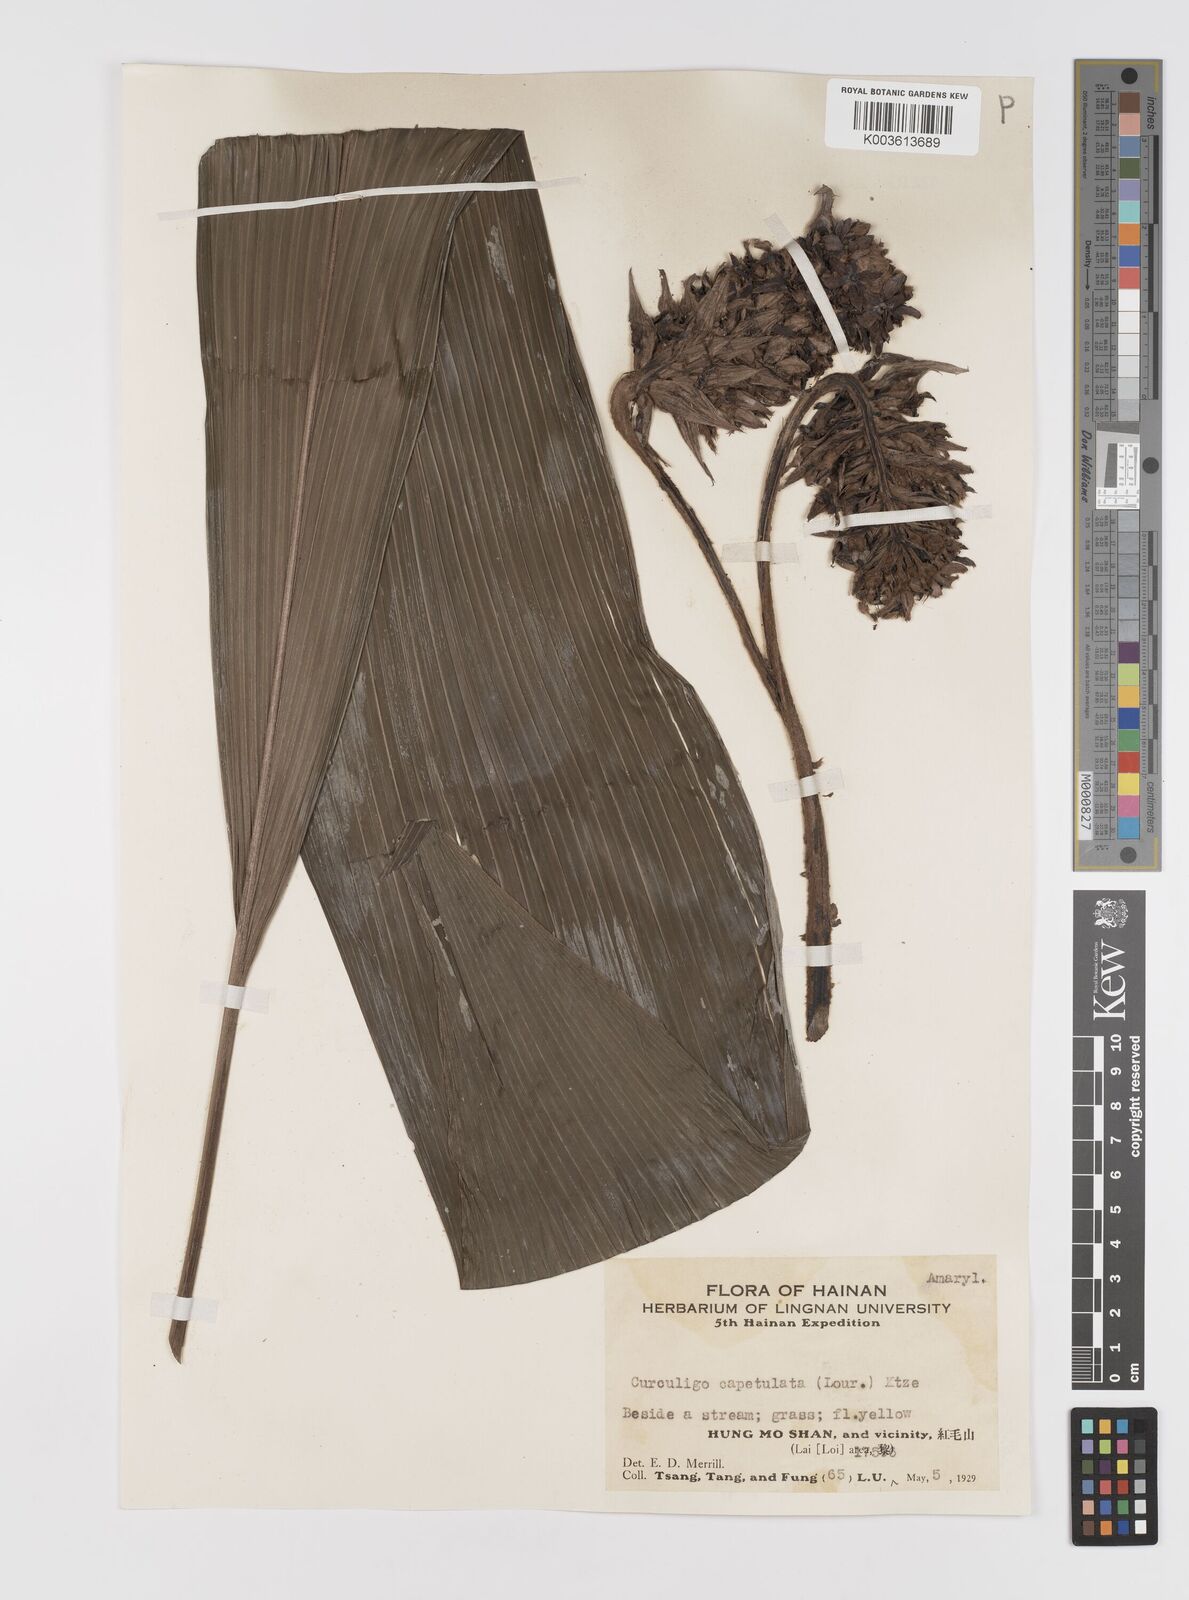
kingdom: Plantae
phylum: Tracheophyta
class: Liliopsida
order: Asparagales
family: Hypoxidaceae
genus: Curculigo
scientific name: Curculigo capitulata
